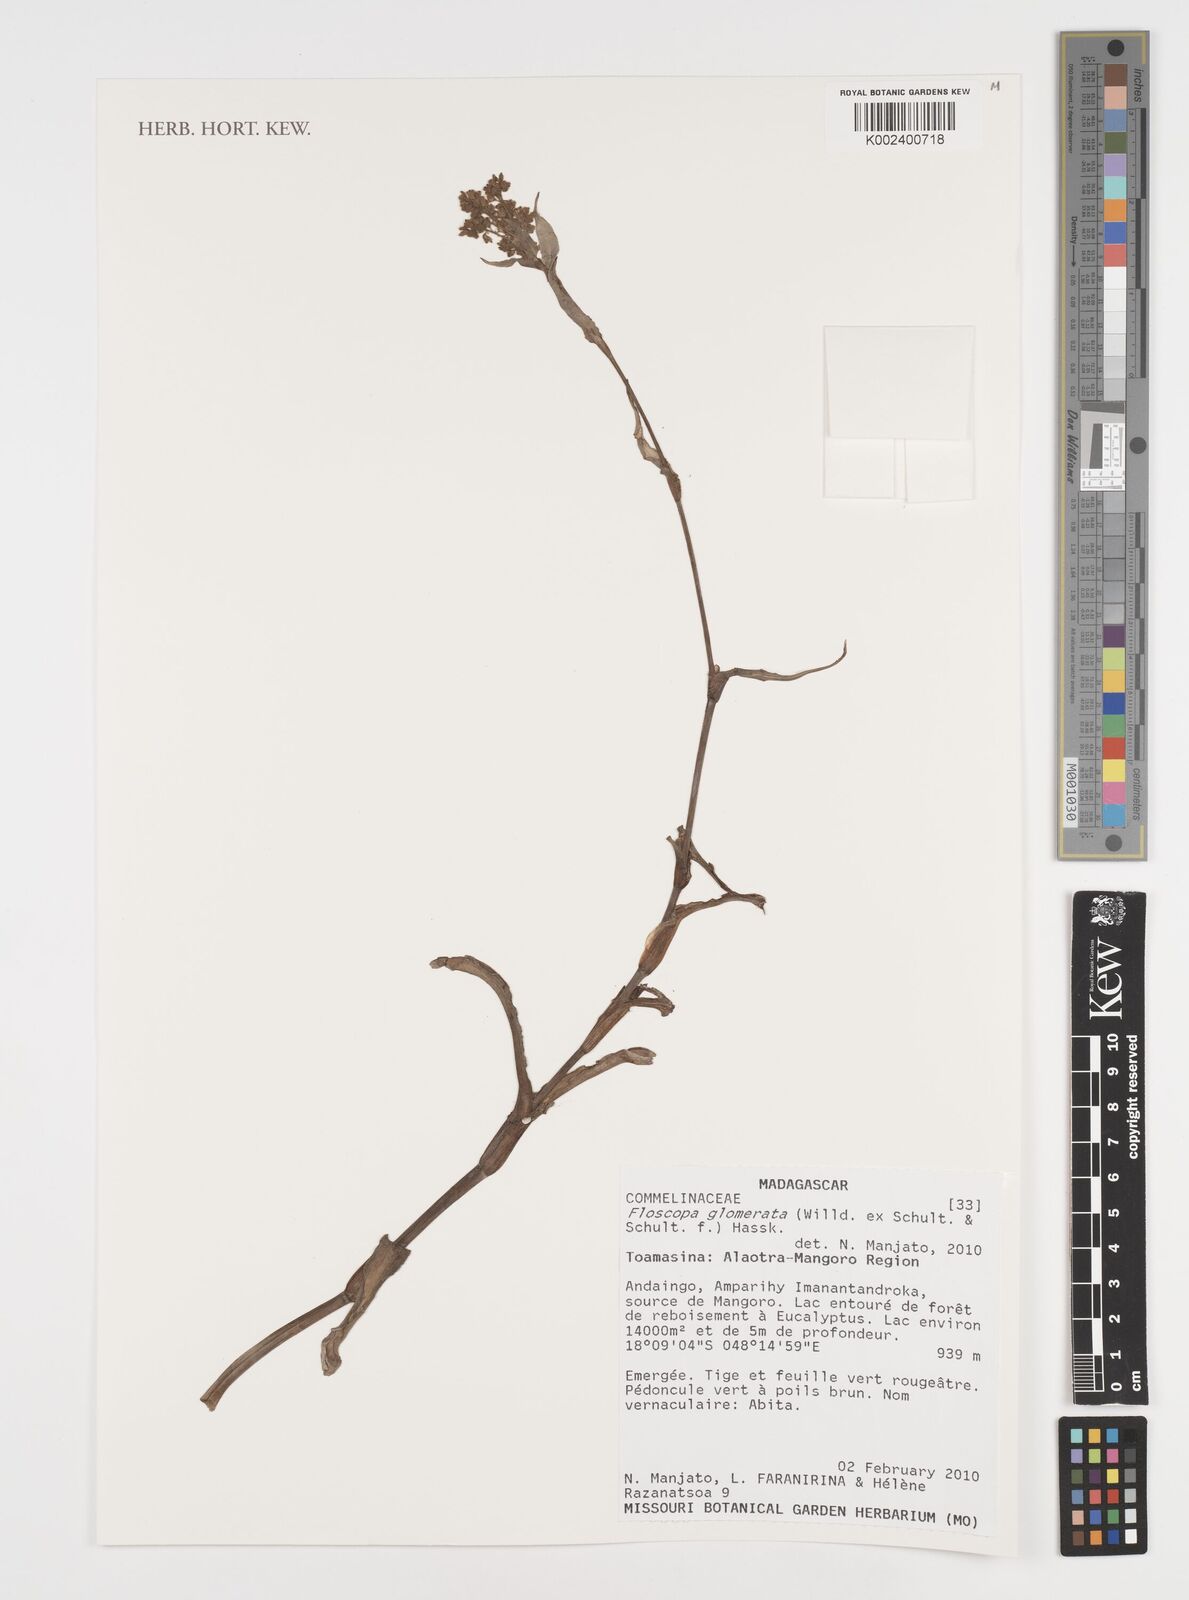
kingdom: Plantae
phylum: Tracheophyta
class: Liliopsida
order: Commelinales
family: Commelinaceae
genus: Floscopa
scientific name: Floscopa glomerata
